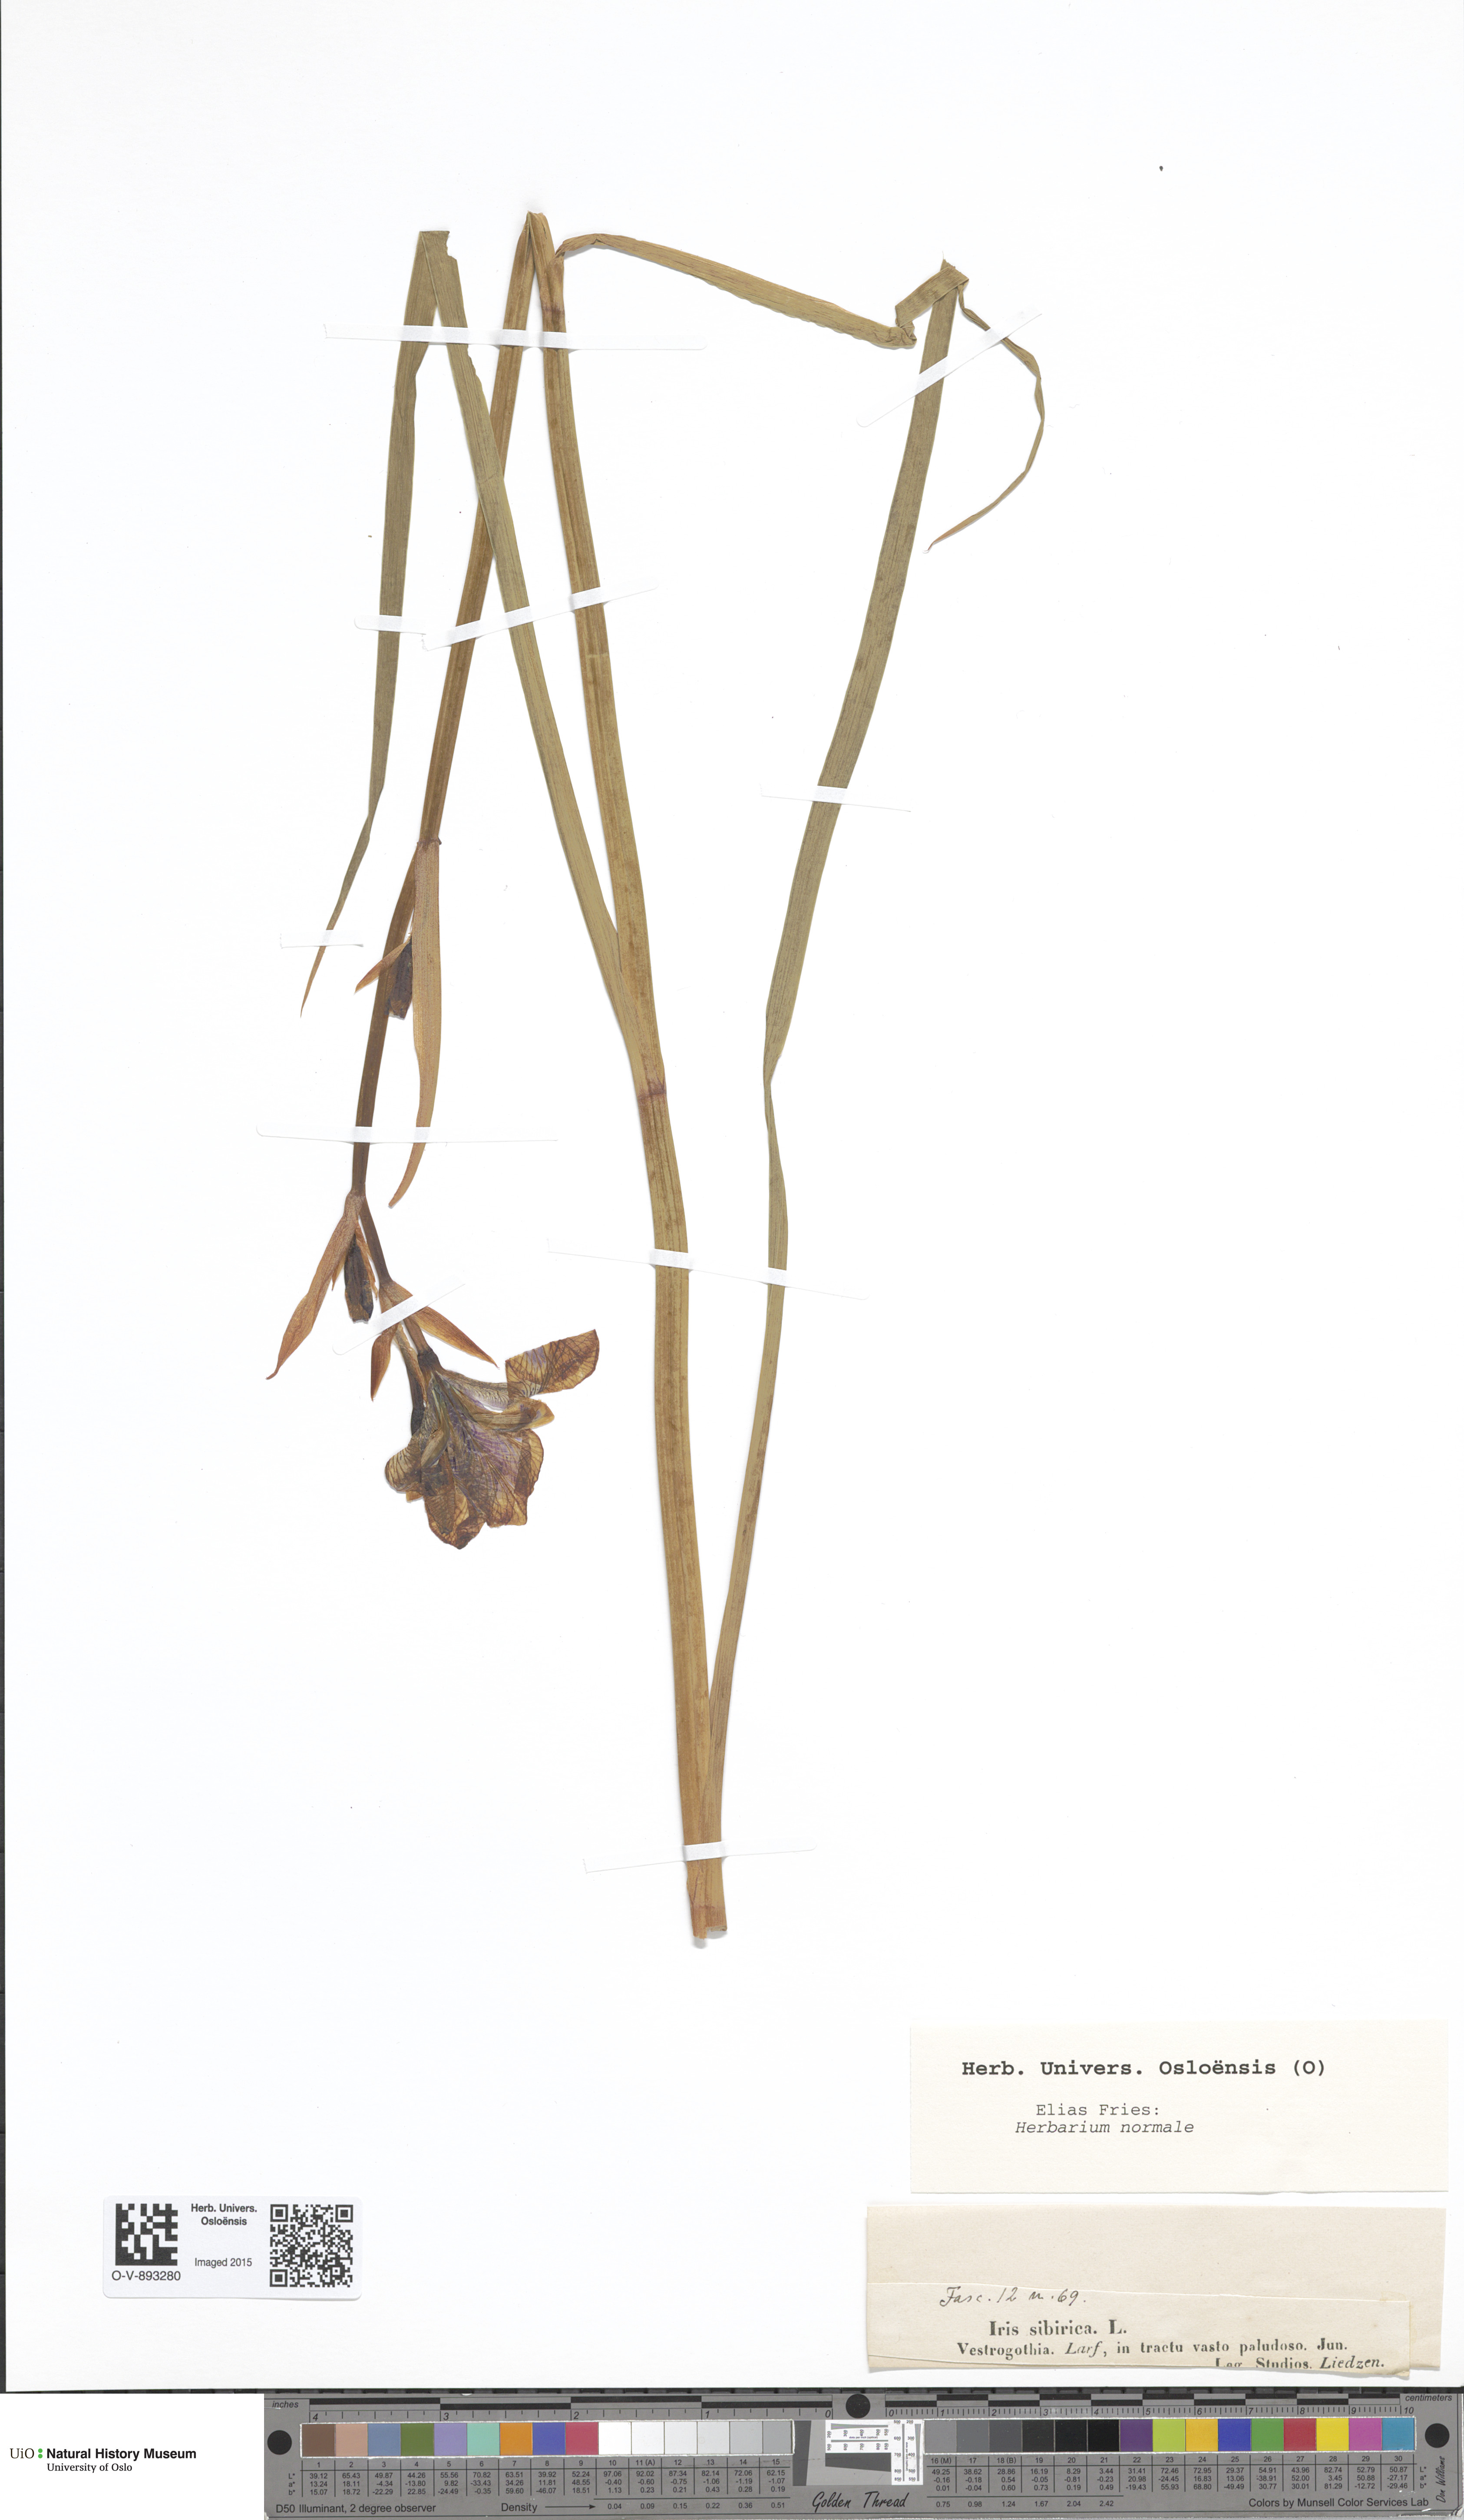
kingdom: Plantae
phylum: Tracheophyta
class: Liliopsida
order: Asparagales
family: Iridaceae
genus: Iris
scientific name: Iris sibirica
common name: Siberian iris
